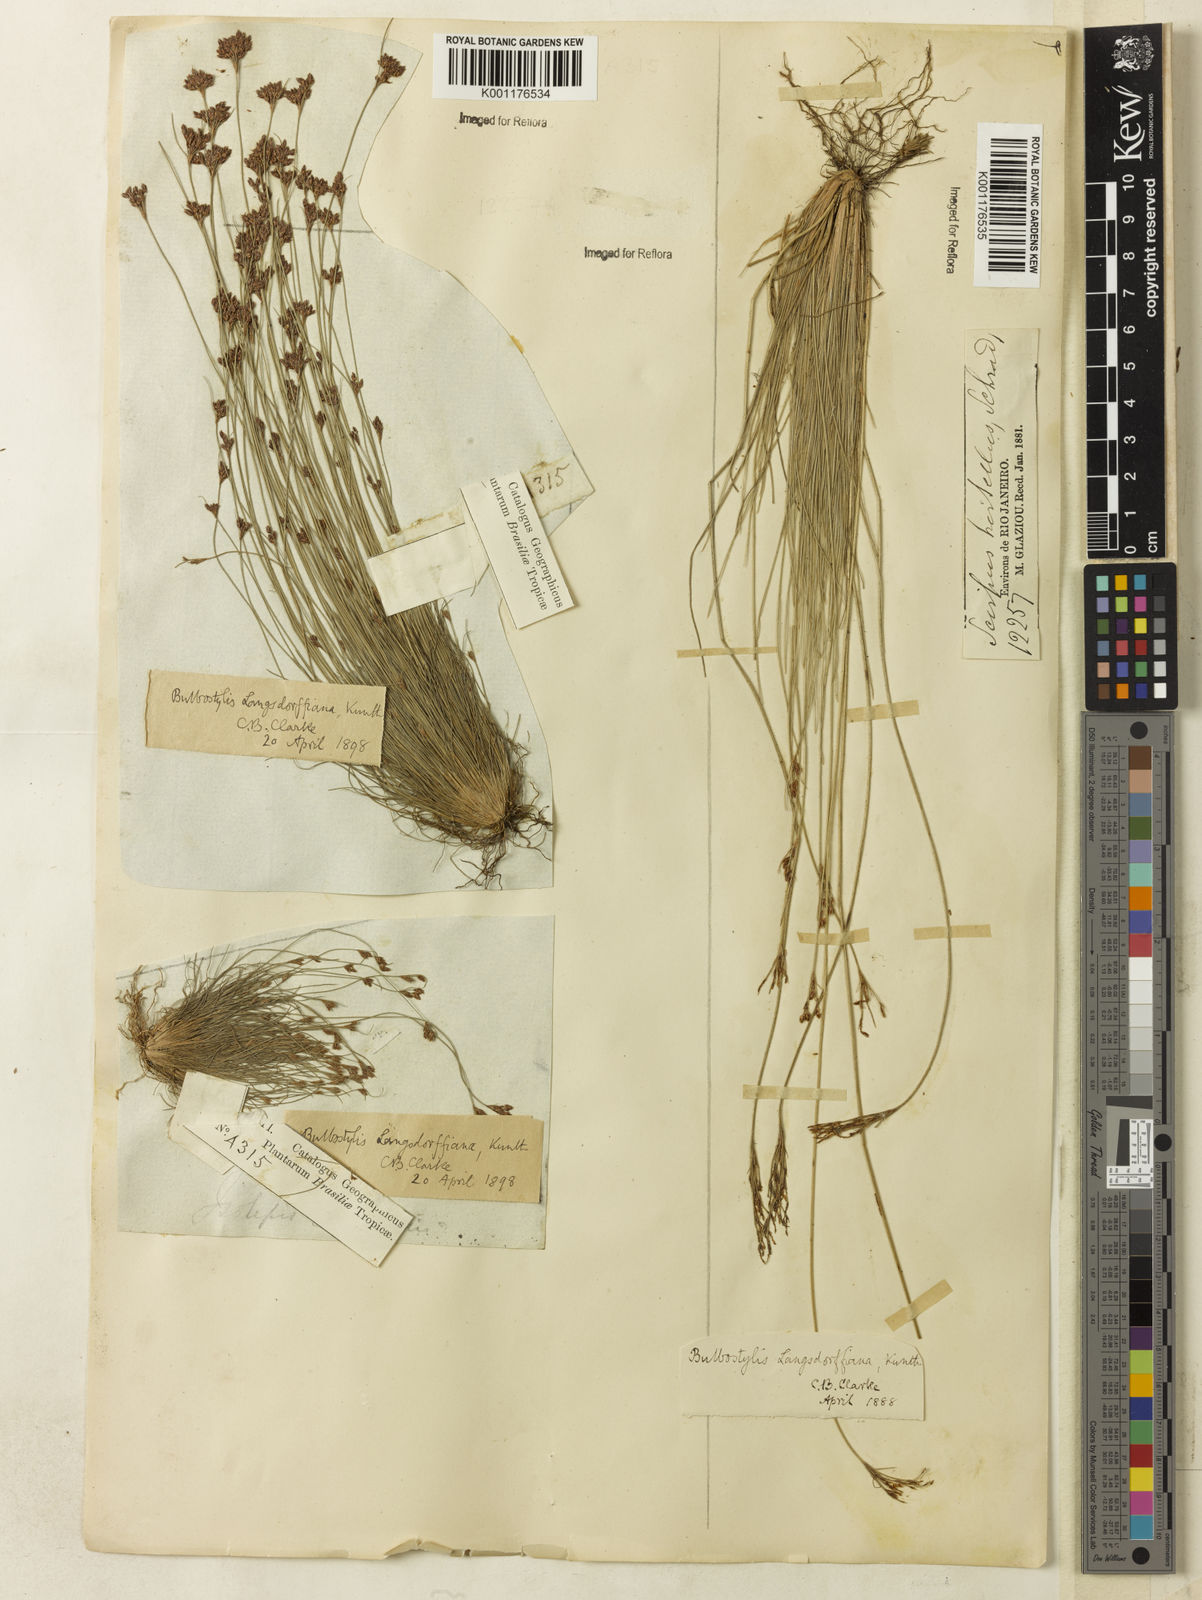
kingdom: Plantae
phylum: Tracheophyta
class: Liliopsida
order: Poales
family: Cyperaceae
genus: Bulbostylis
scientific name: Bulbostylis juncoides
